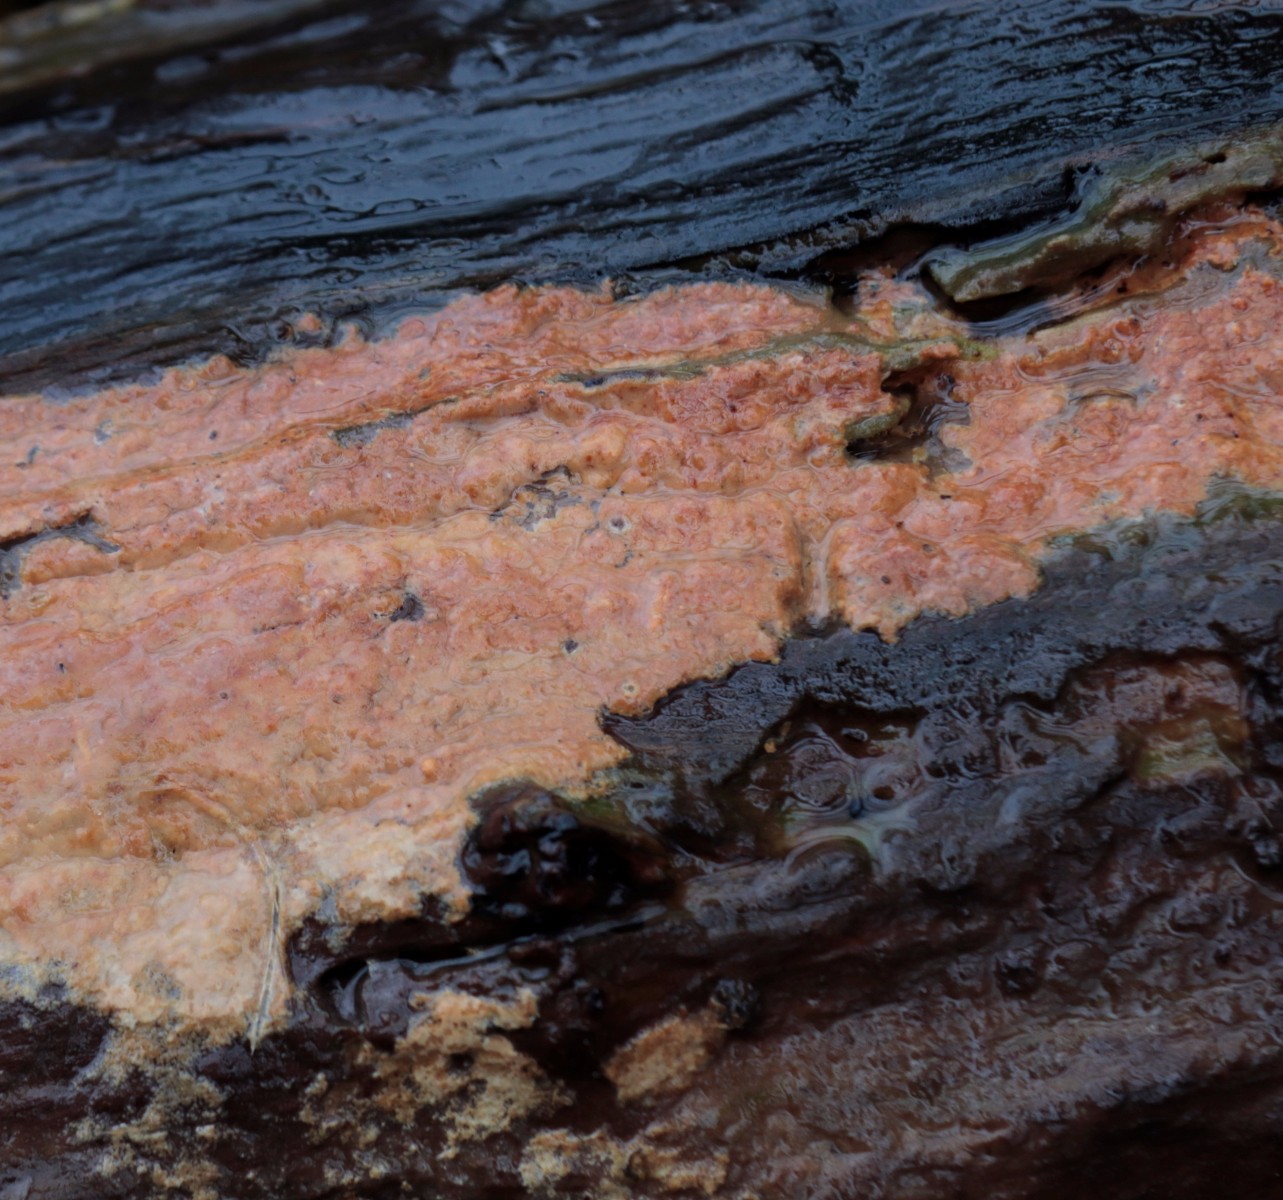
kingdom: Fungi
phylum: Basidiomycota
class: Agaricomycetes
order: Russulales
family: Peniophoraceae
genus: Gloiothele
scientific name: Gloiothele lactescens
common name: bitter olieskind
